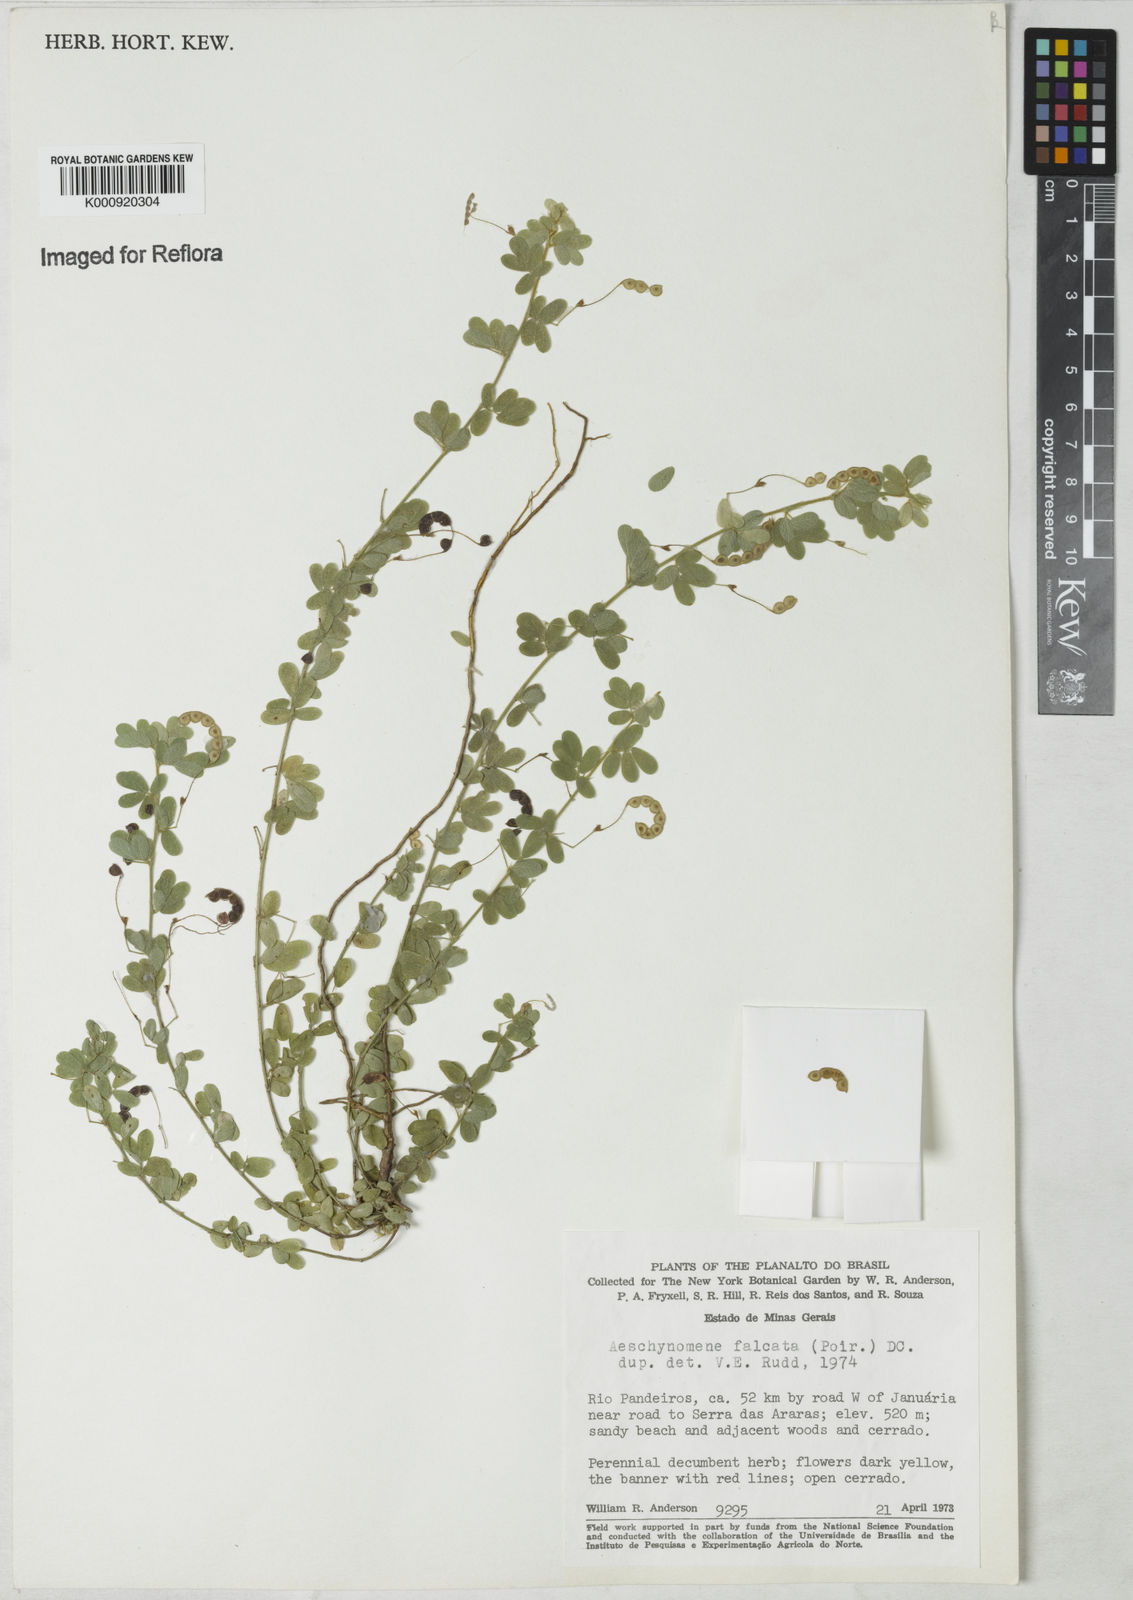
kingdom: Plantae
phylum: Tracheophyta
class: Magnoliopsida
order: Fabales
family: Fabaceae
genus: Aeschynomene
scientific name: Aeschynomene
